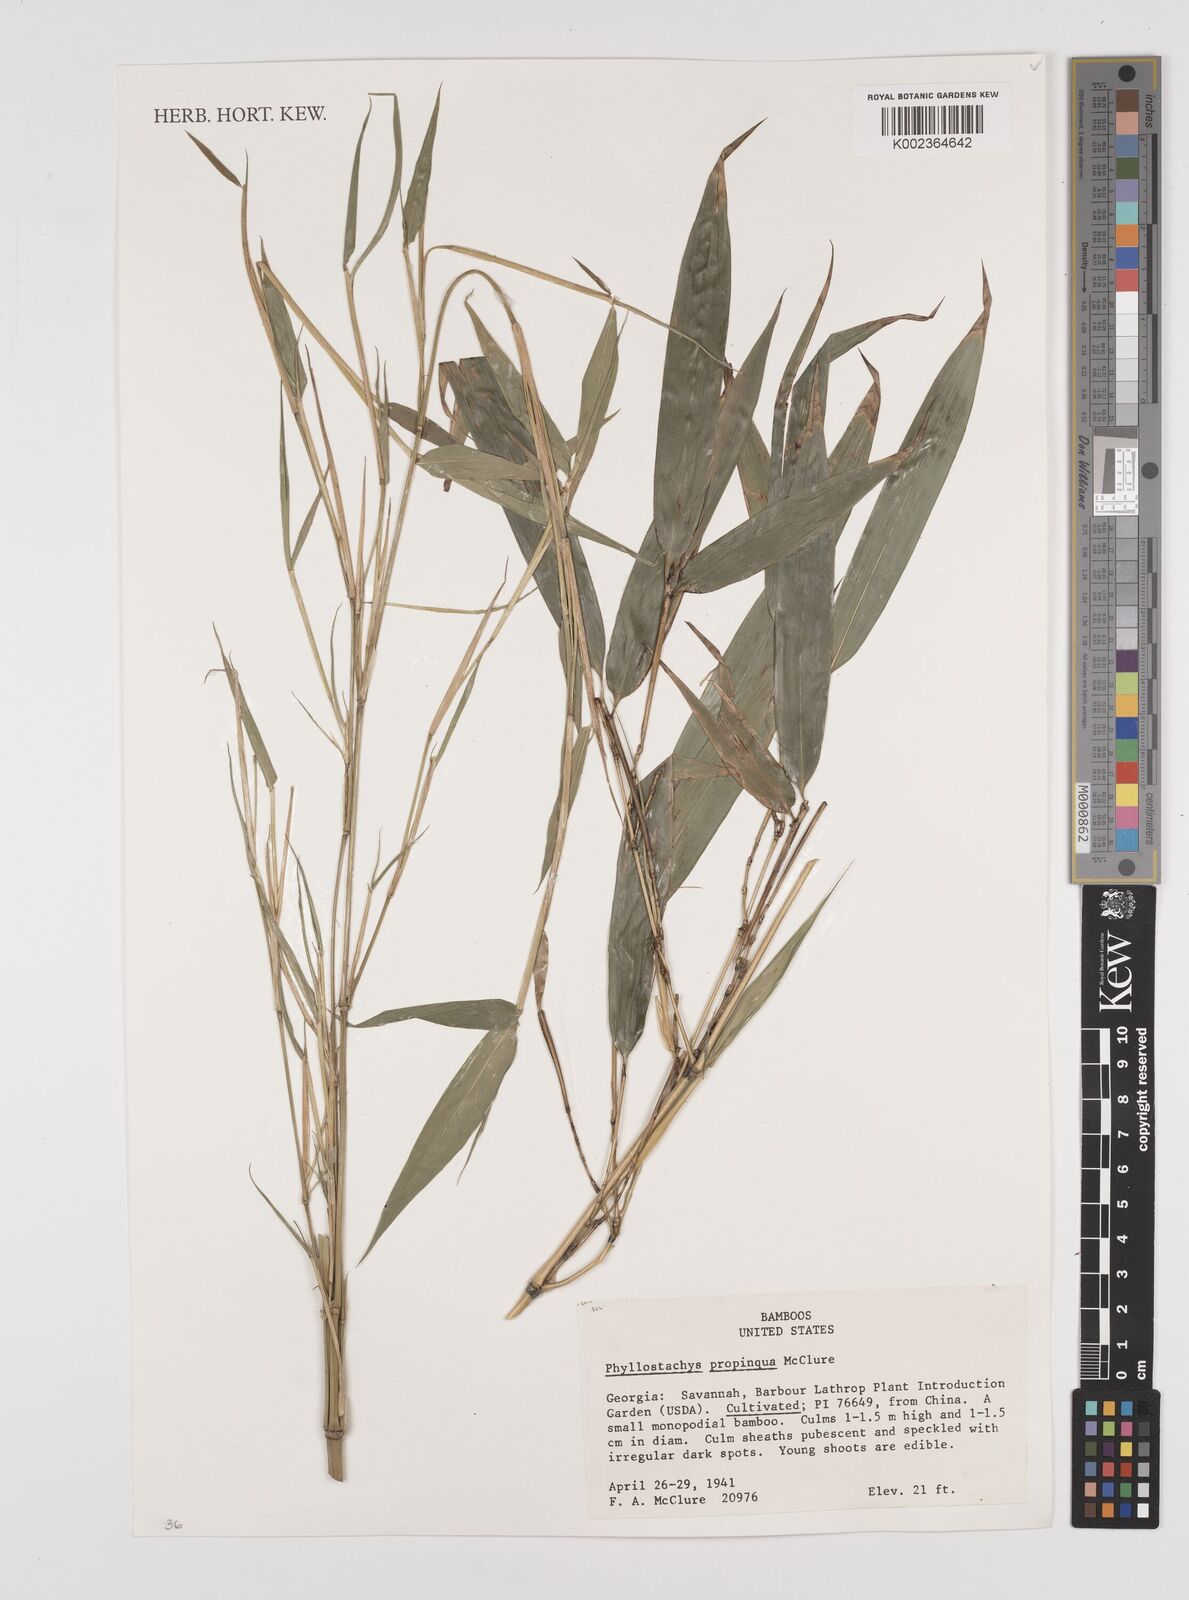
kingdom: Plantae
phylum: Tracheophyta
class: Liliopsida
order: Poales
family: Poaceae
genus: Phyllostachys
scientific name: Phyllostachys propinqua
